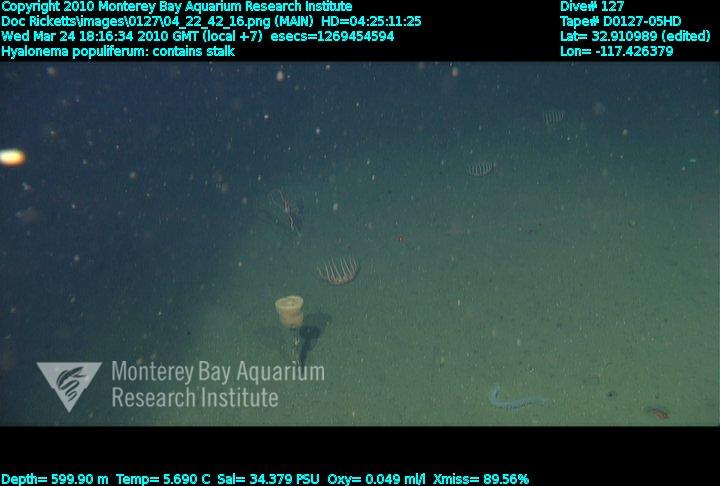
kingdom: Animalia
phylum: Porifera
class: Hexactinellida
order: Amphidiscosida
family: Hyalonematidae
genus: Hyalonema
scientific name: Hyalonema populiferum
